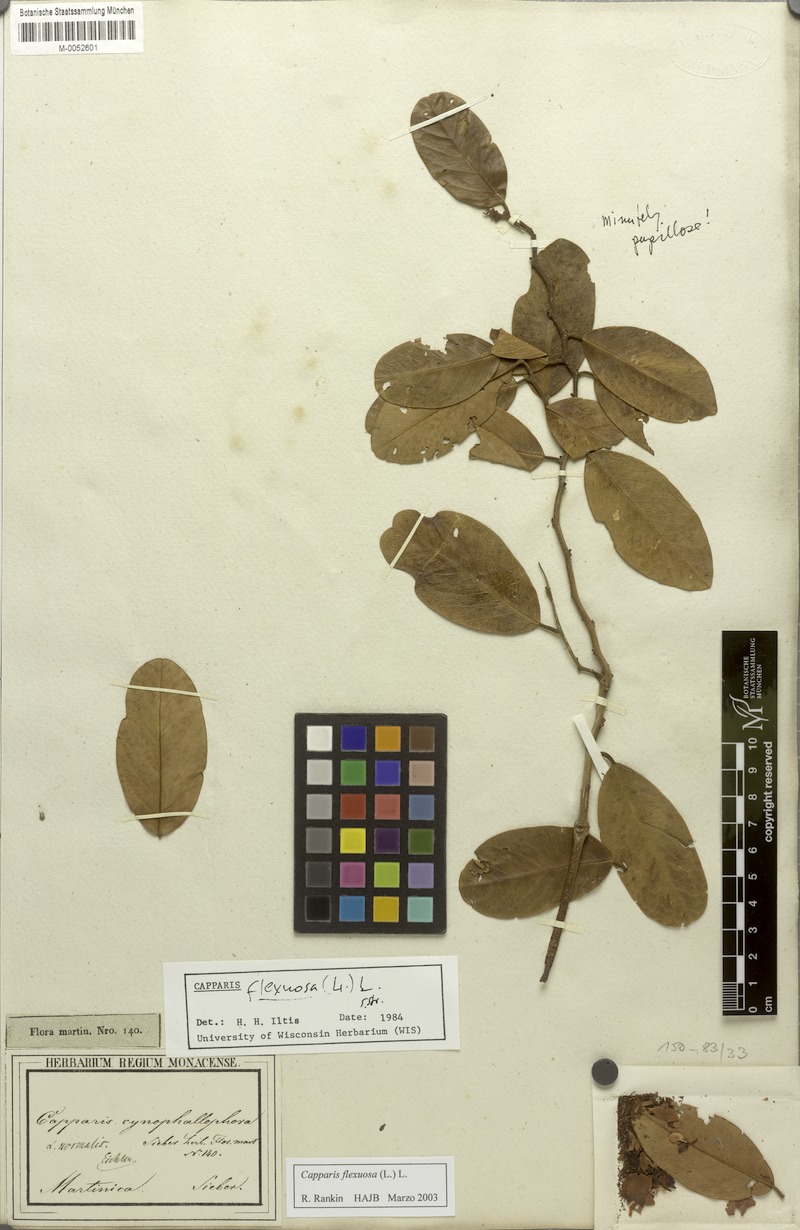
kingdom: Plantae
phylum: Tracheophyta
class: Magnoliopsida
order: Brassicales
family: Capparaceae
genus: Cynophalla
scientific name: Cynophalla flexuosa
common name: Capertree
